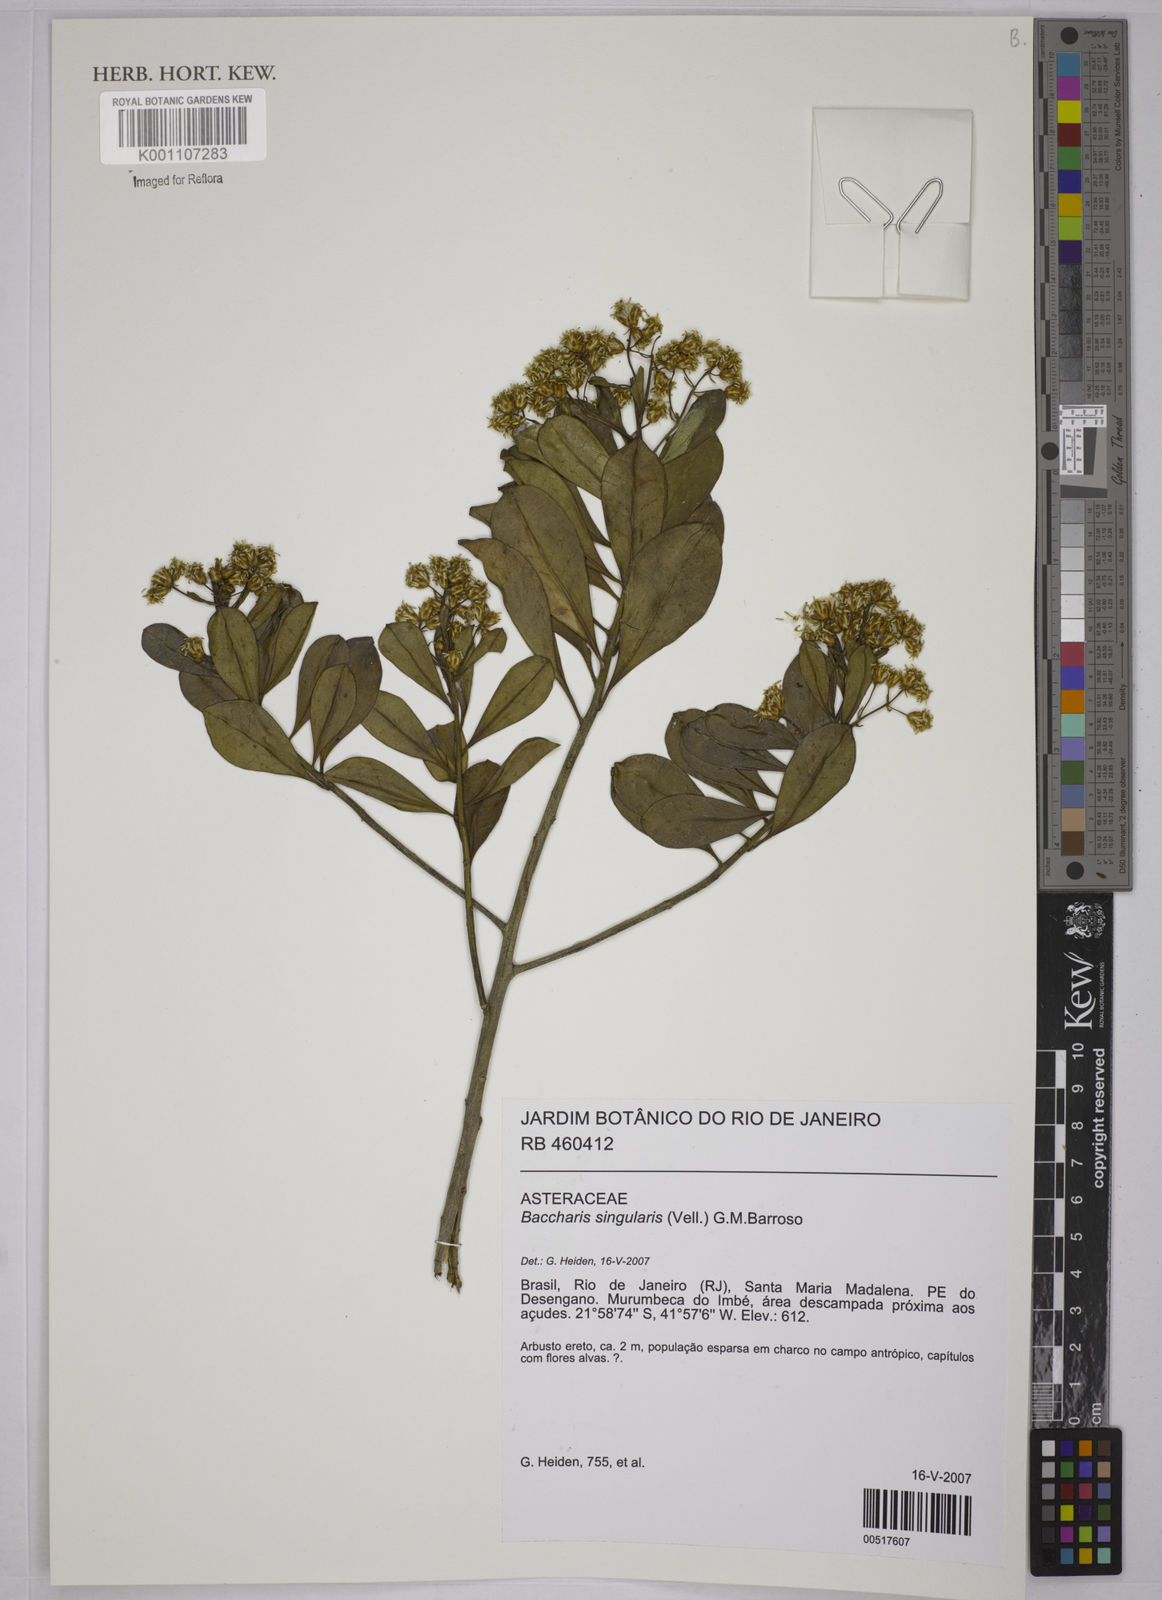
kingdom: Plantae
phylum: Tracheophyta
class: Magnoliopsida
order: Asterales
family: Asteraceae
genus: Baccharis
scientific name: Baccharis singularis
